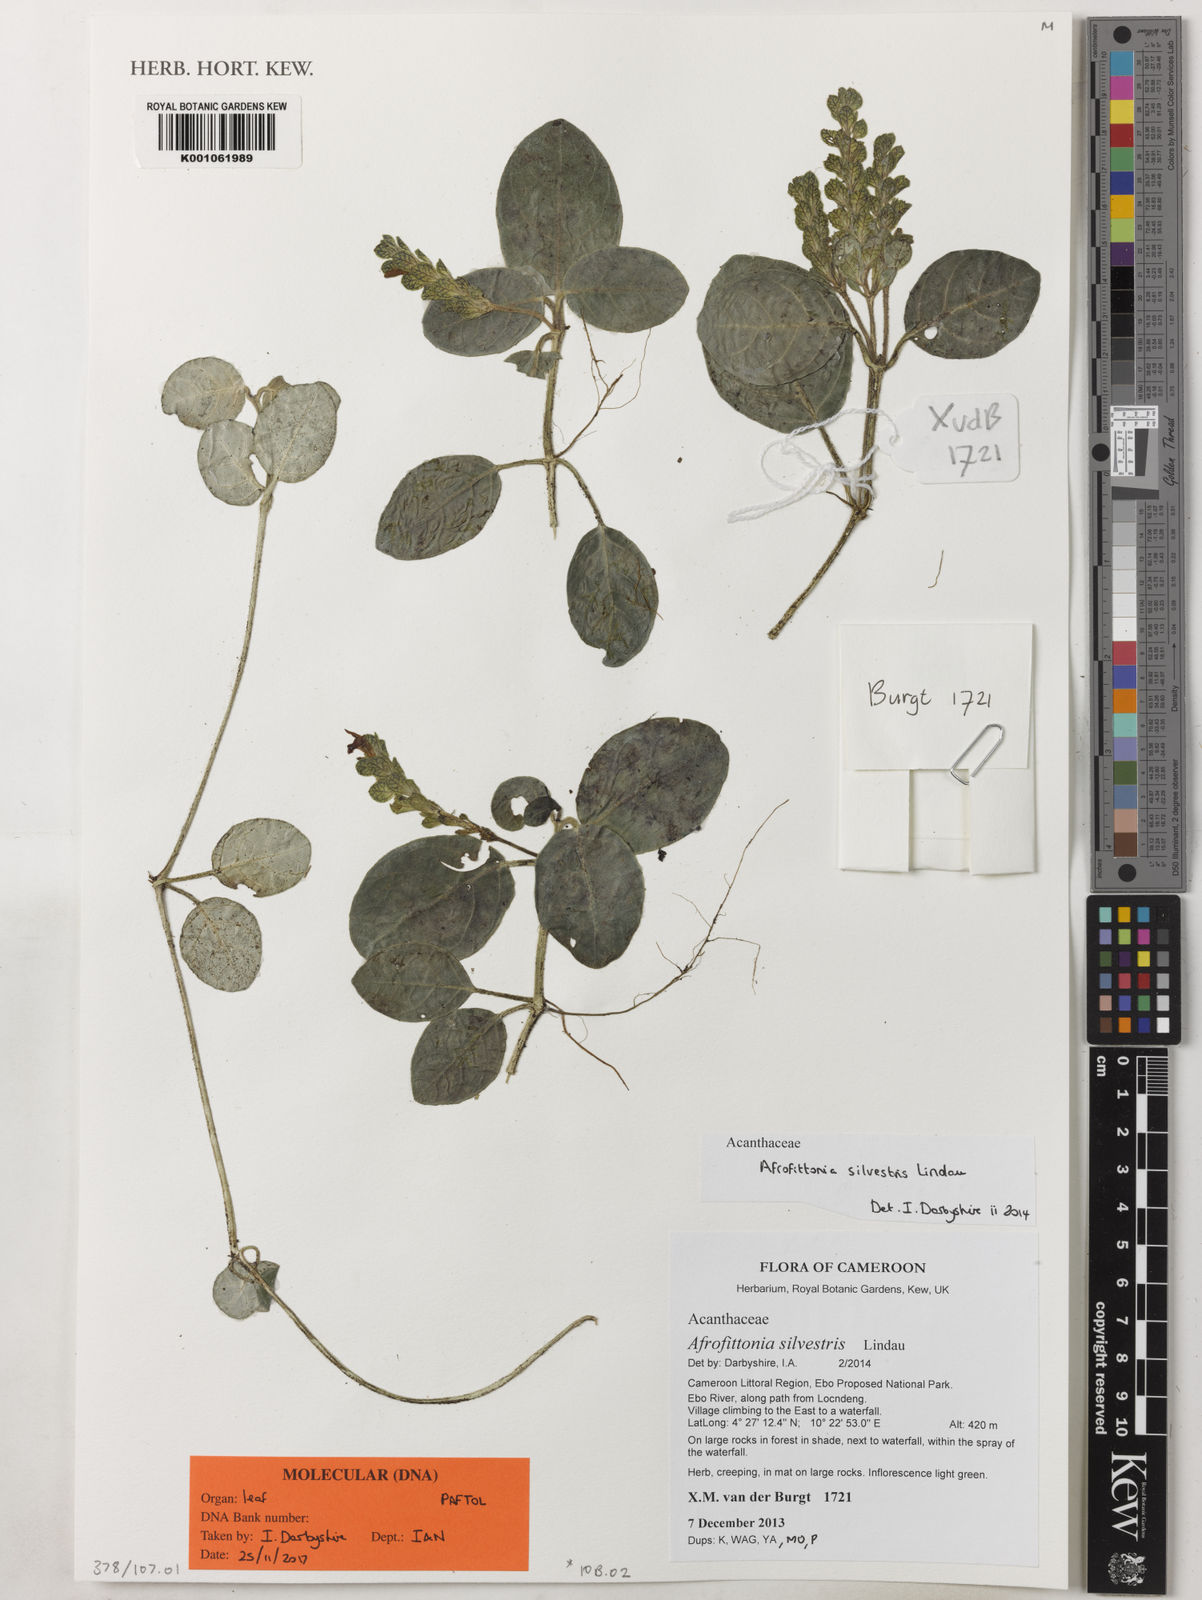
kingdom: Plantae
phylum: Tracheophyta
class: Magnoliopsida
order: Lamiales
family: Acanthaceae
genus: Afrofittonia
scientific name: Afrofittonia silvestris
